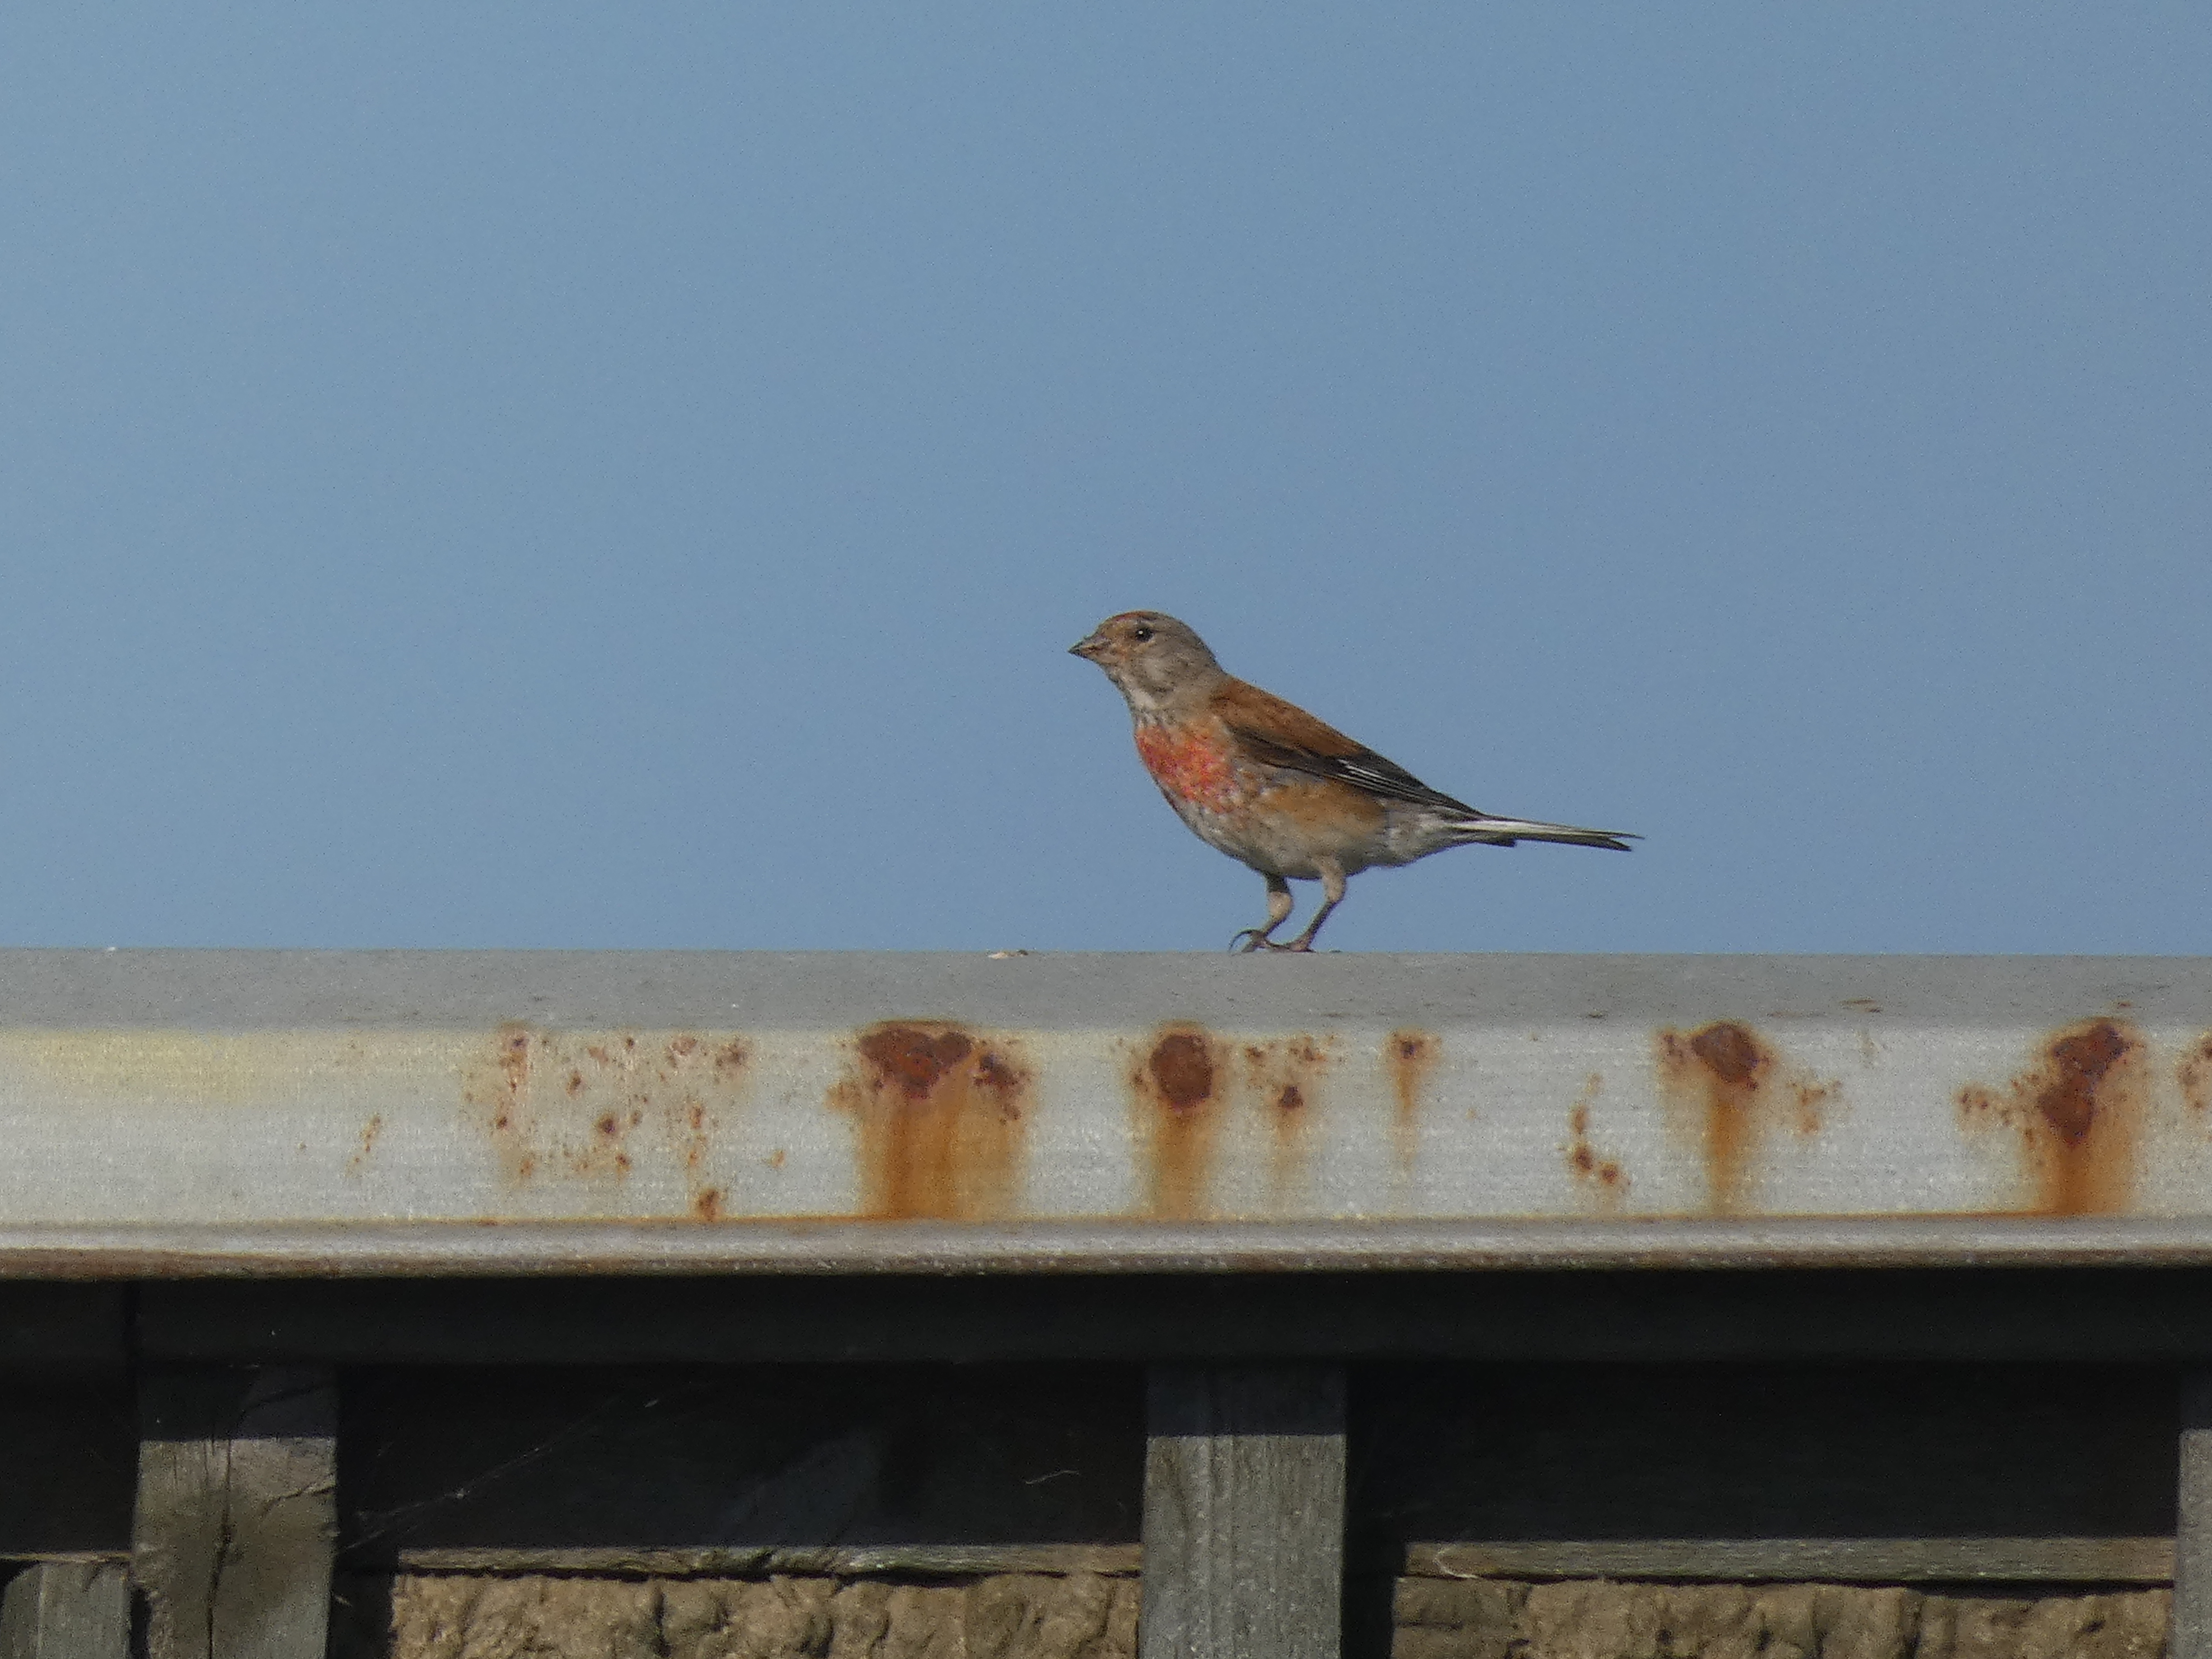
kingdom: Animalia
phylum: Chordata
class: Aves
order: Passeriformes
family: Fringillidae
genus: Linaria
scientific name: Linaria cannabina
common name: Tornirisk
